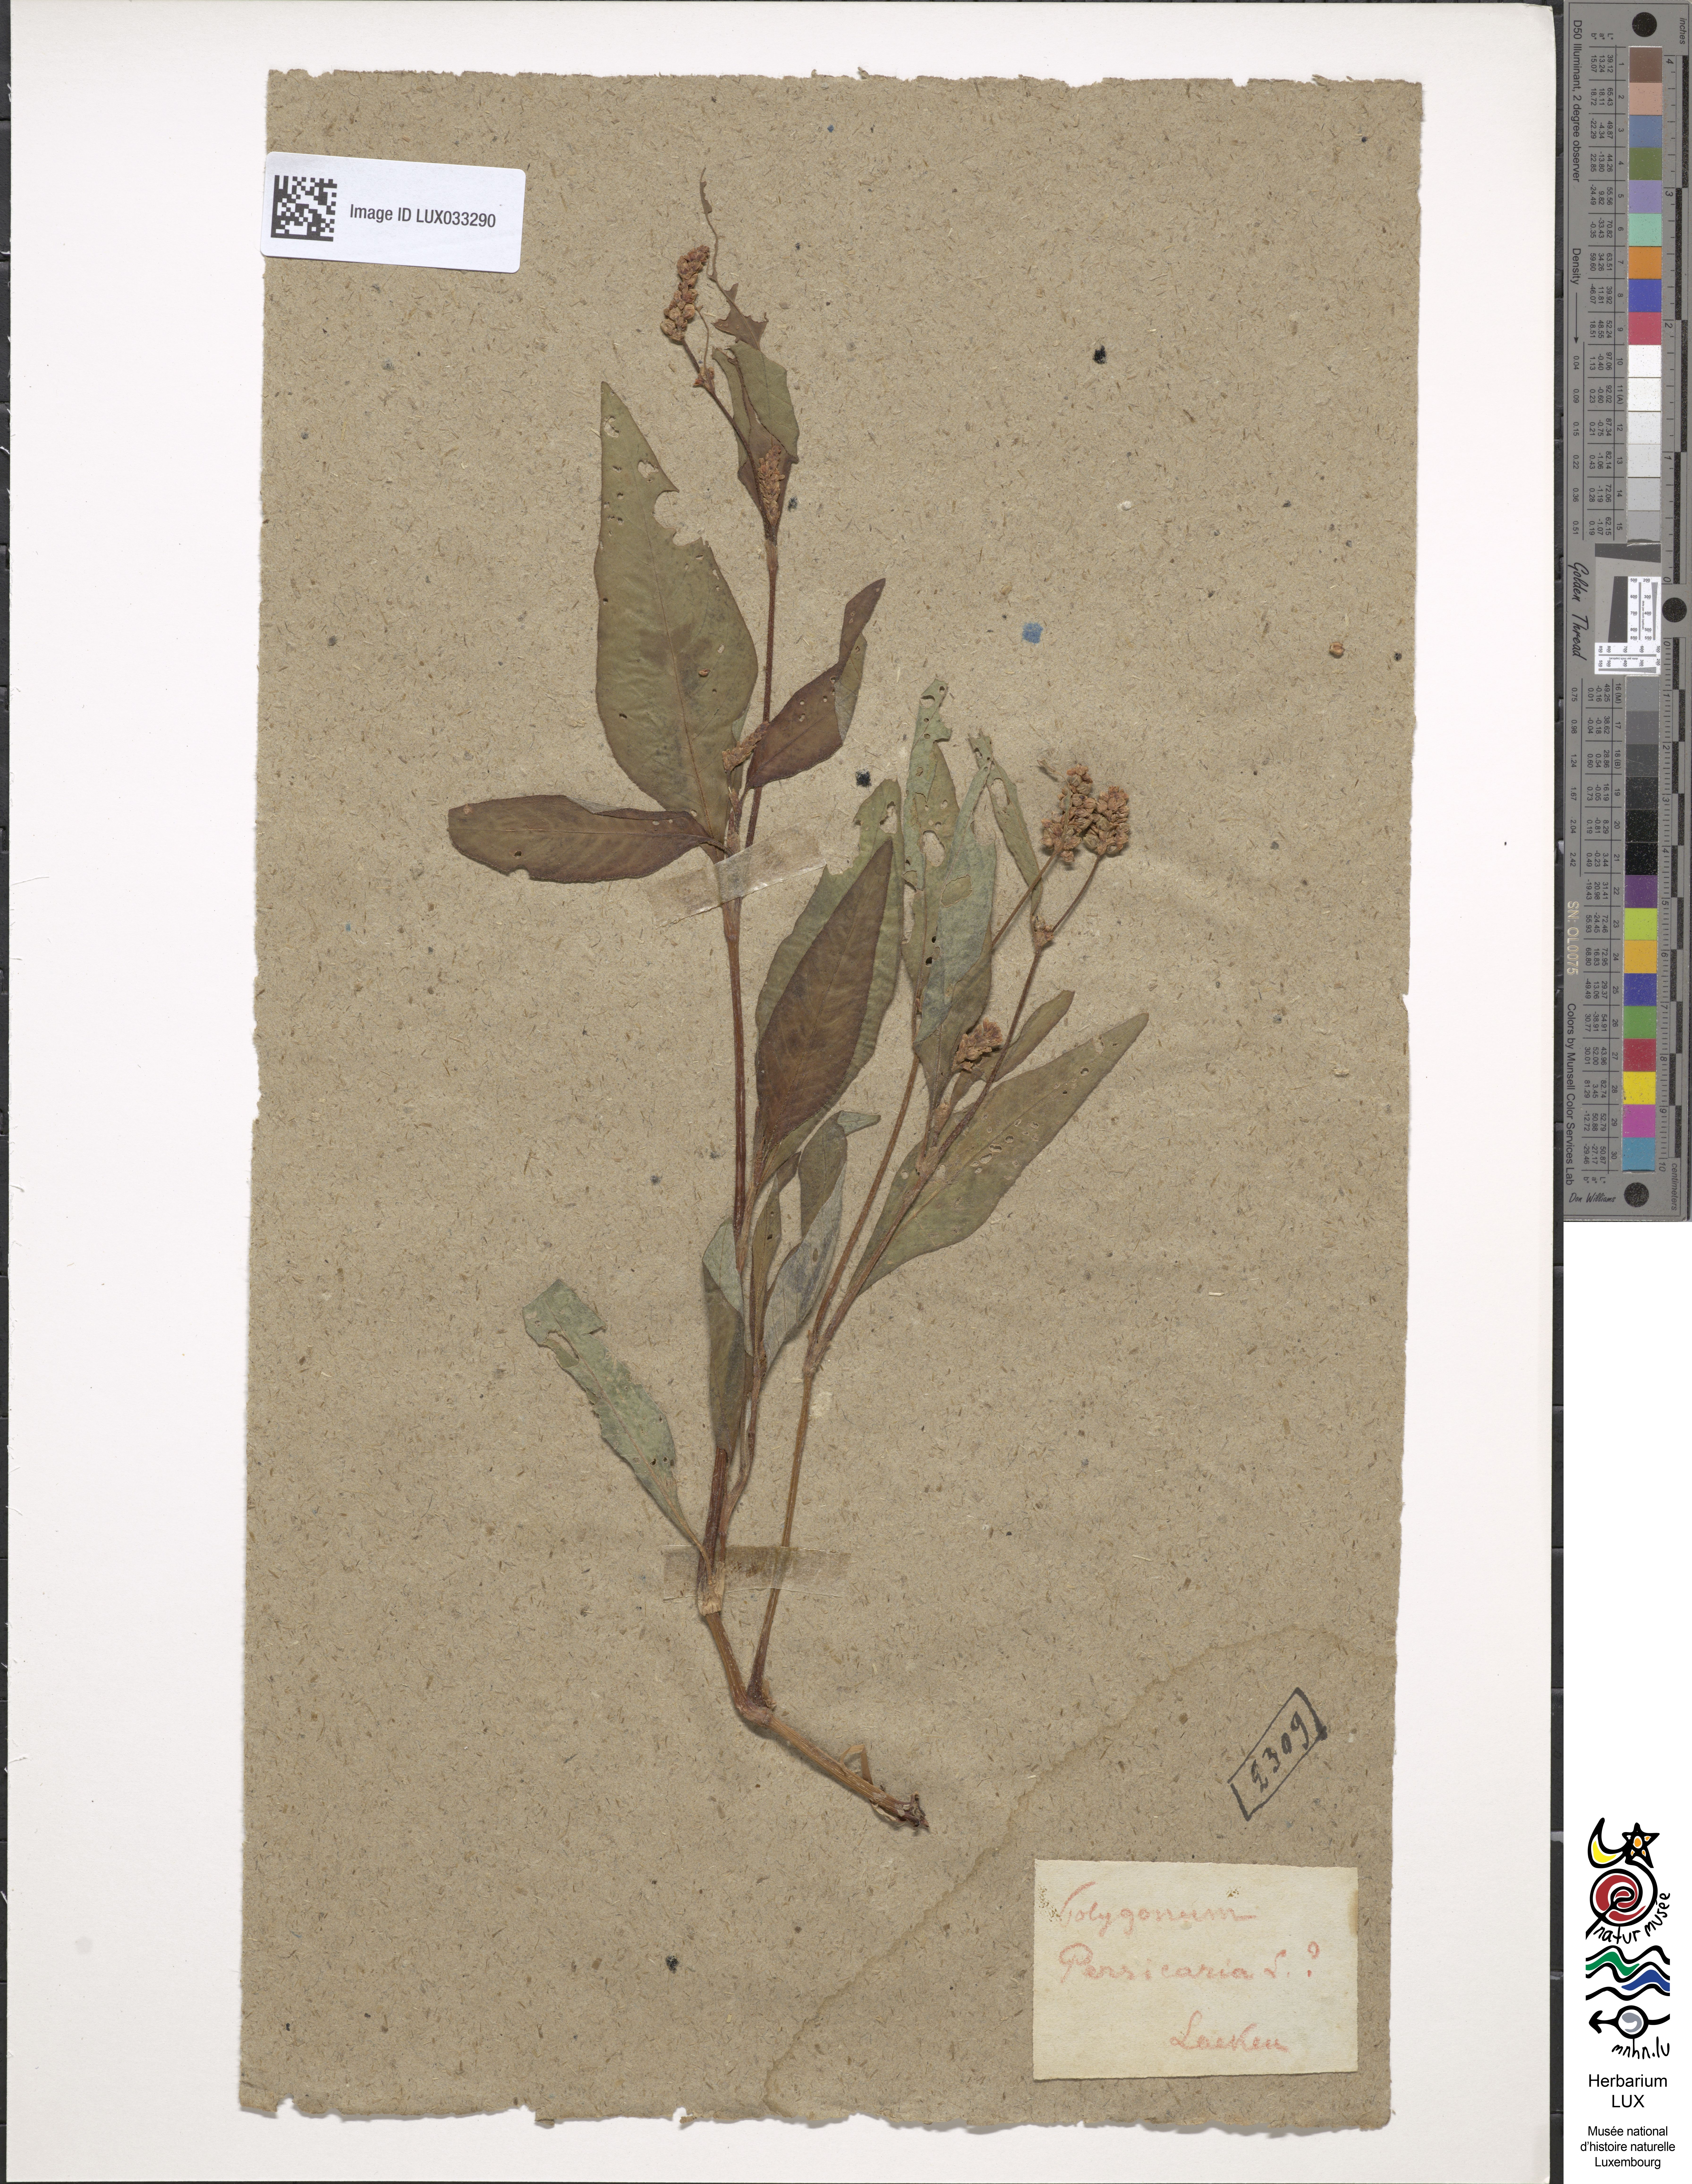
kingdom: Plantae
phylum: Tracheophyta
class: Magnoliopsida
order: Caryophyllales
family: Polygonaceae
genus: Persicaria
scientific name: Persicaria maculosa
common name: Redshank
